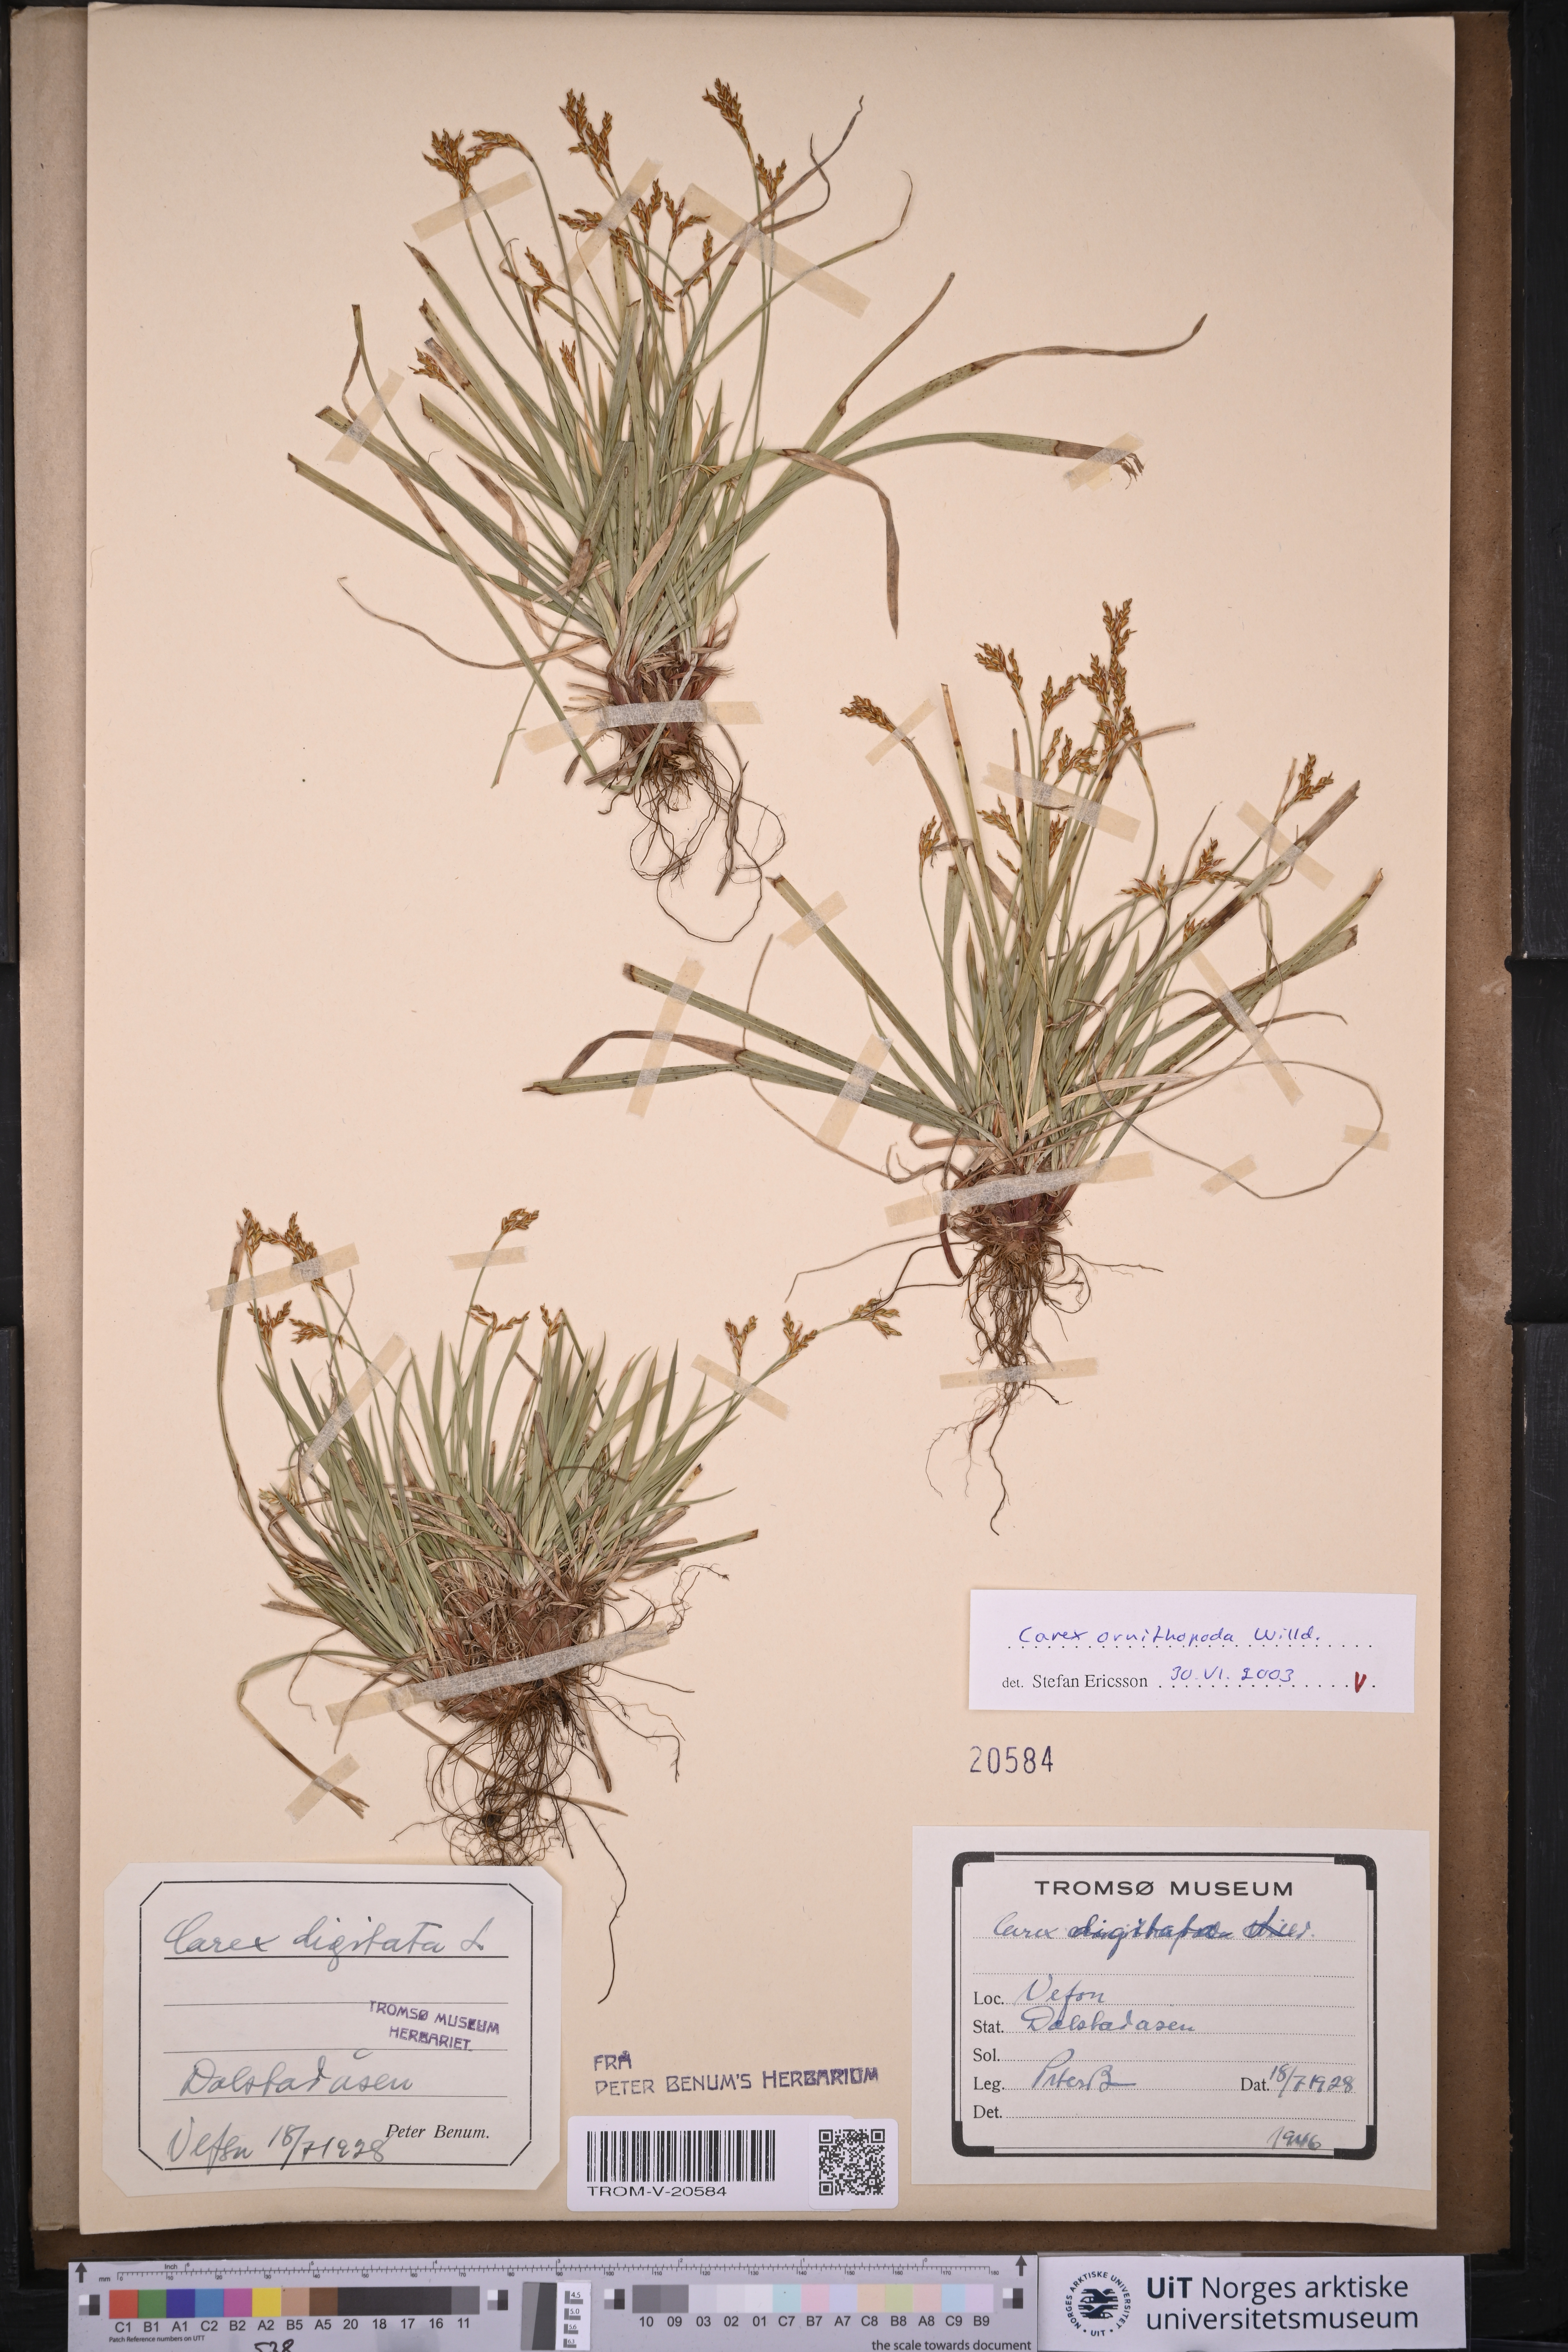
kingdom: Plantae
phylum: Tracheophyta
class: Liliopsida
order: Poales
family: Cyperaceae
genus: Carex
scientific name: Carex ornithopoda
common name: Bird's-foot sedge
